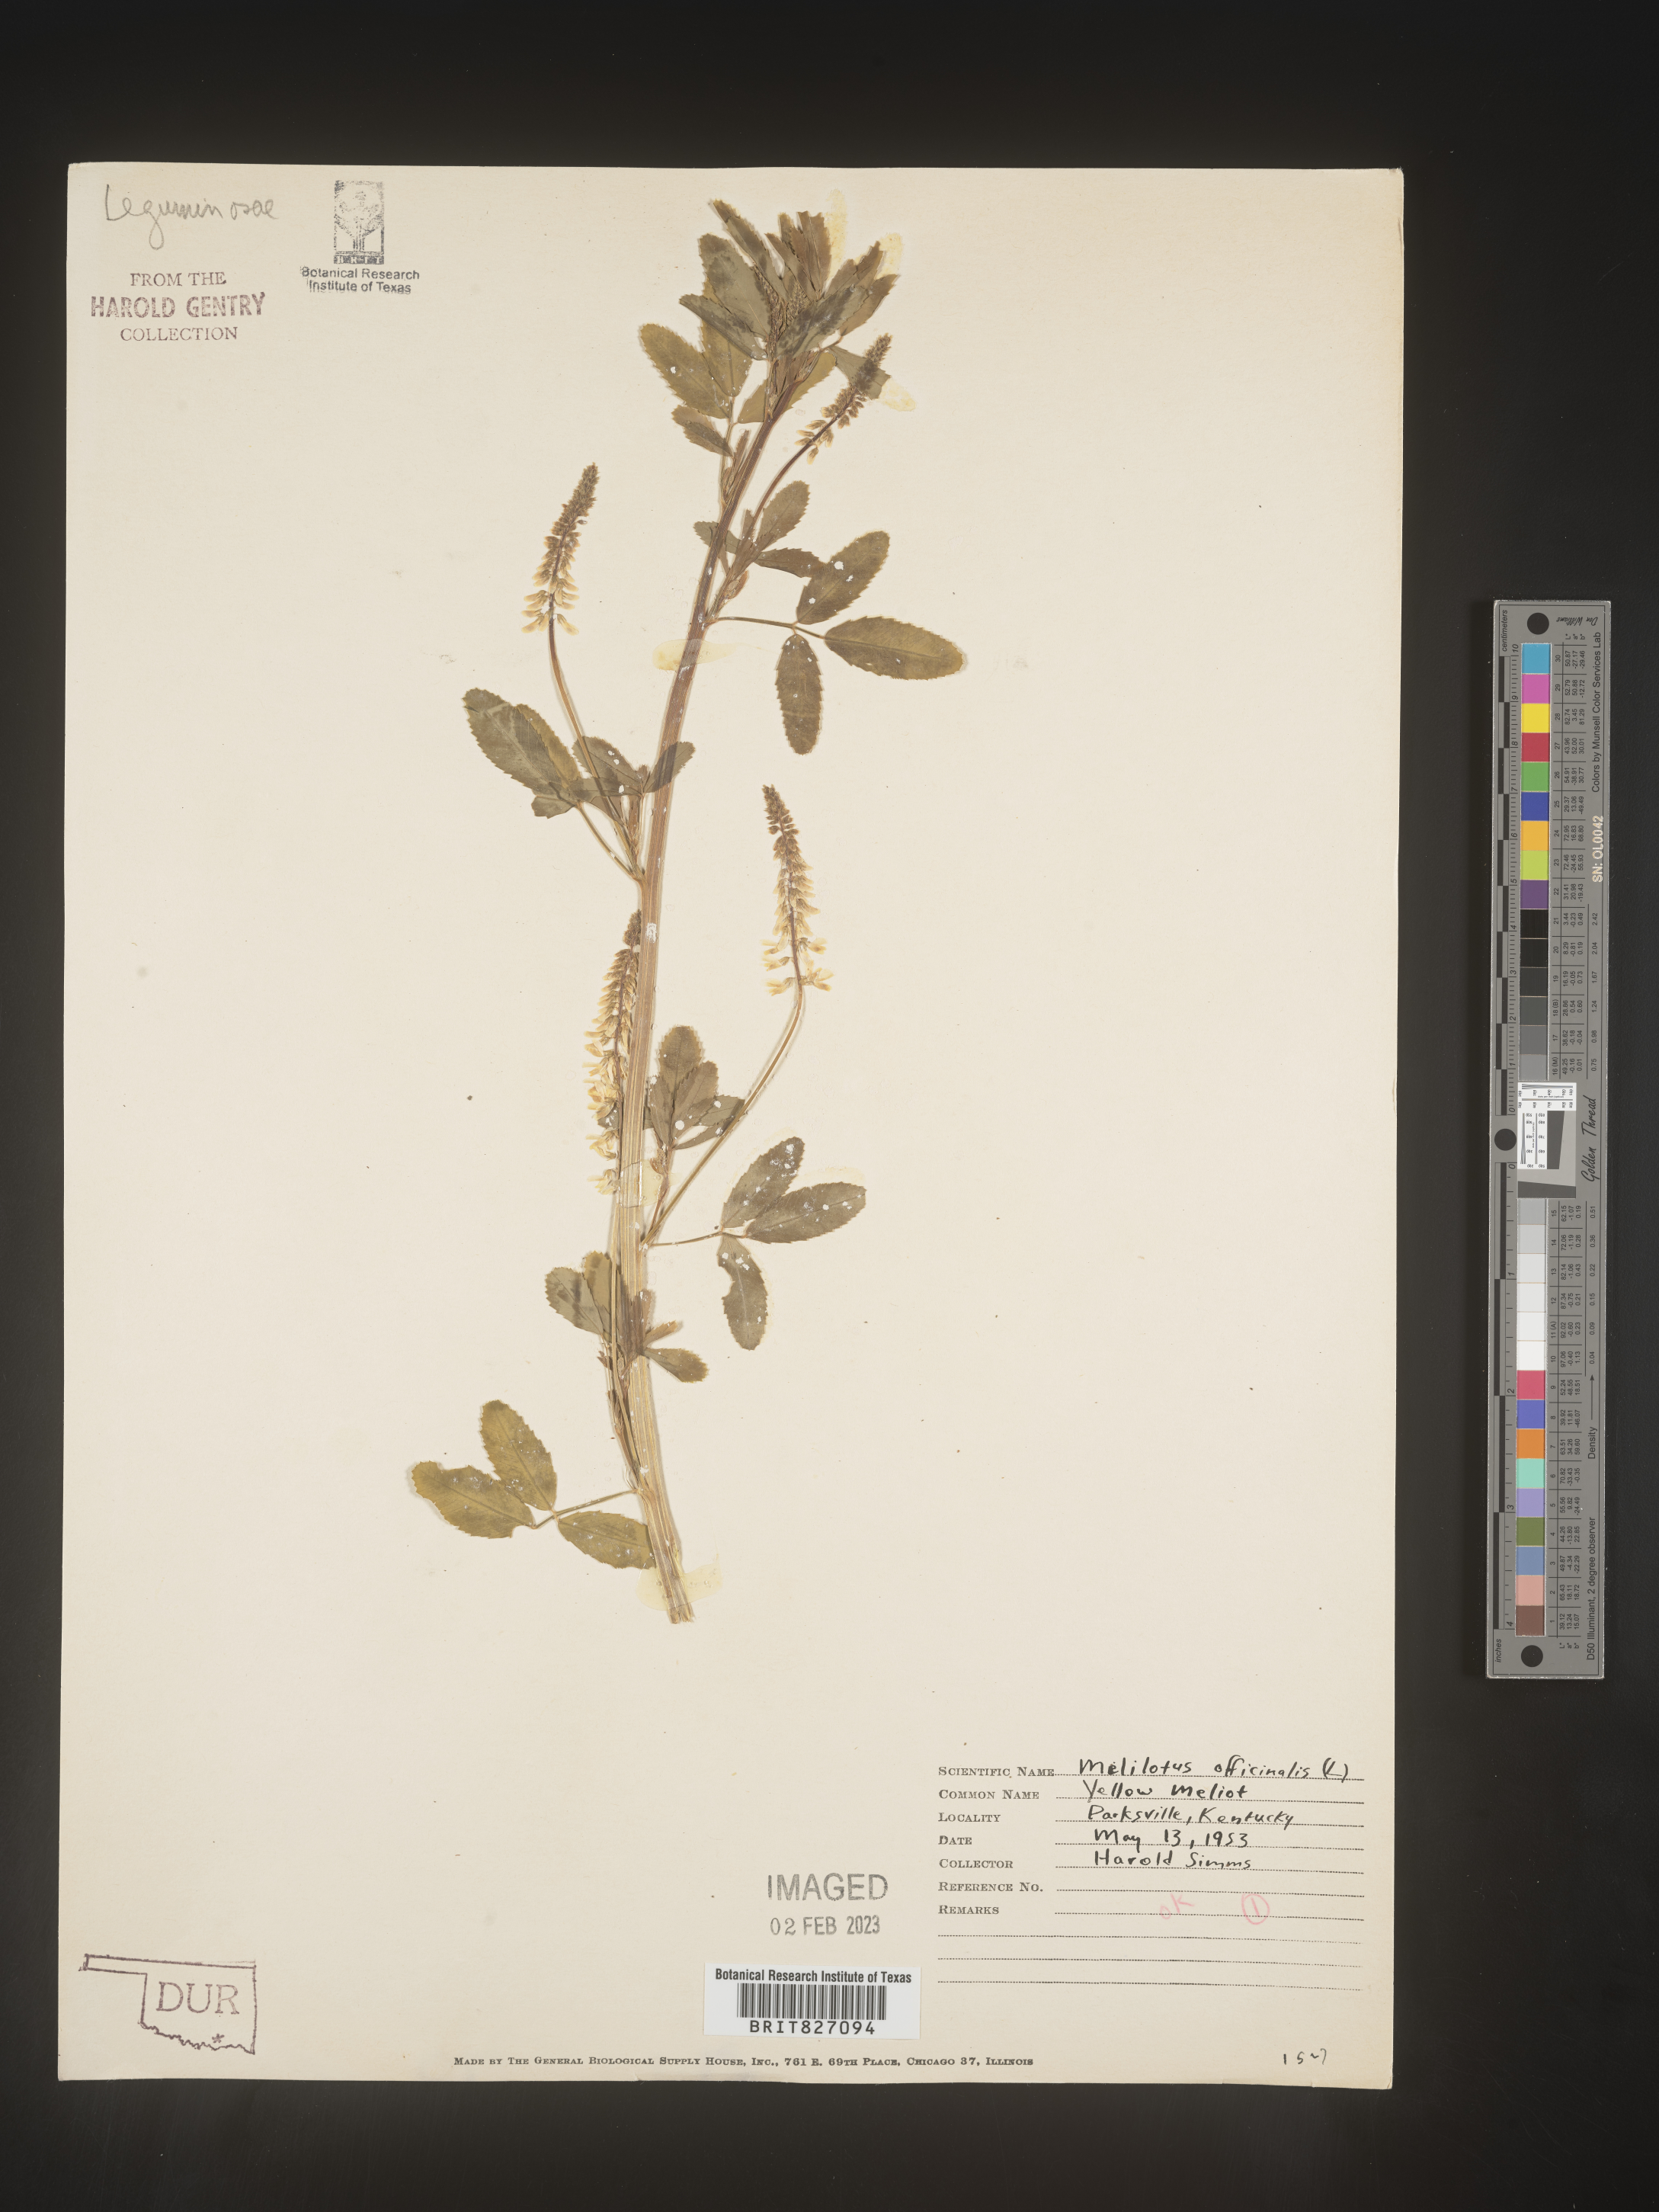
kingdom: Plantae
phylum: Tracheophyta
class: Magnoliopsida
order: Fabales
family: Fabaceae
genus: Melilotus
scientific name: Melilotus officinalis
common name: Sweetclover
